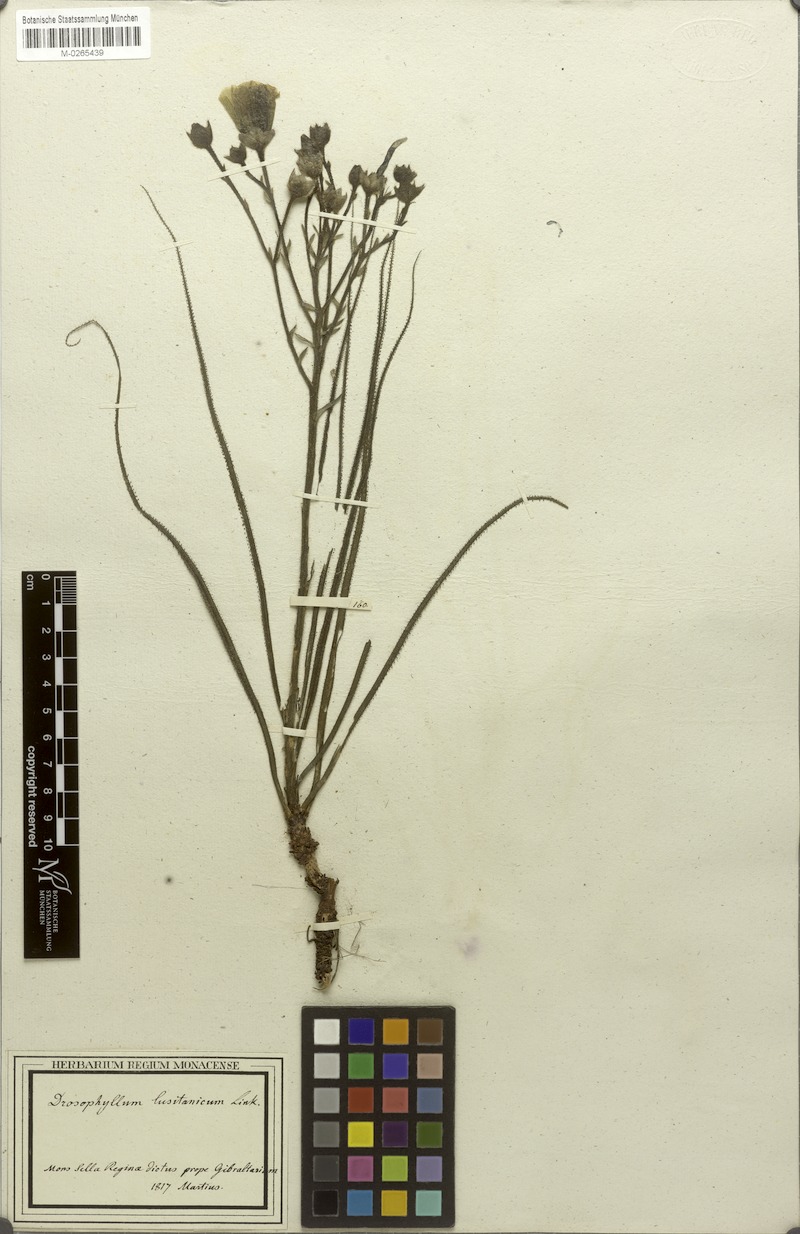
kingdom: Plantae
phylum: Tracheophyta
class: Magnoliopsida
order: Caryophyllales
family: Drosophyllaceae
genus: Drosophyllum
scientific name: Drosophyllum lusitanicum
